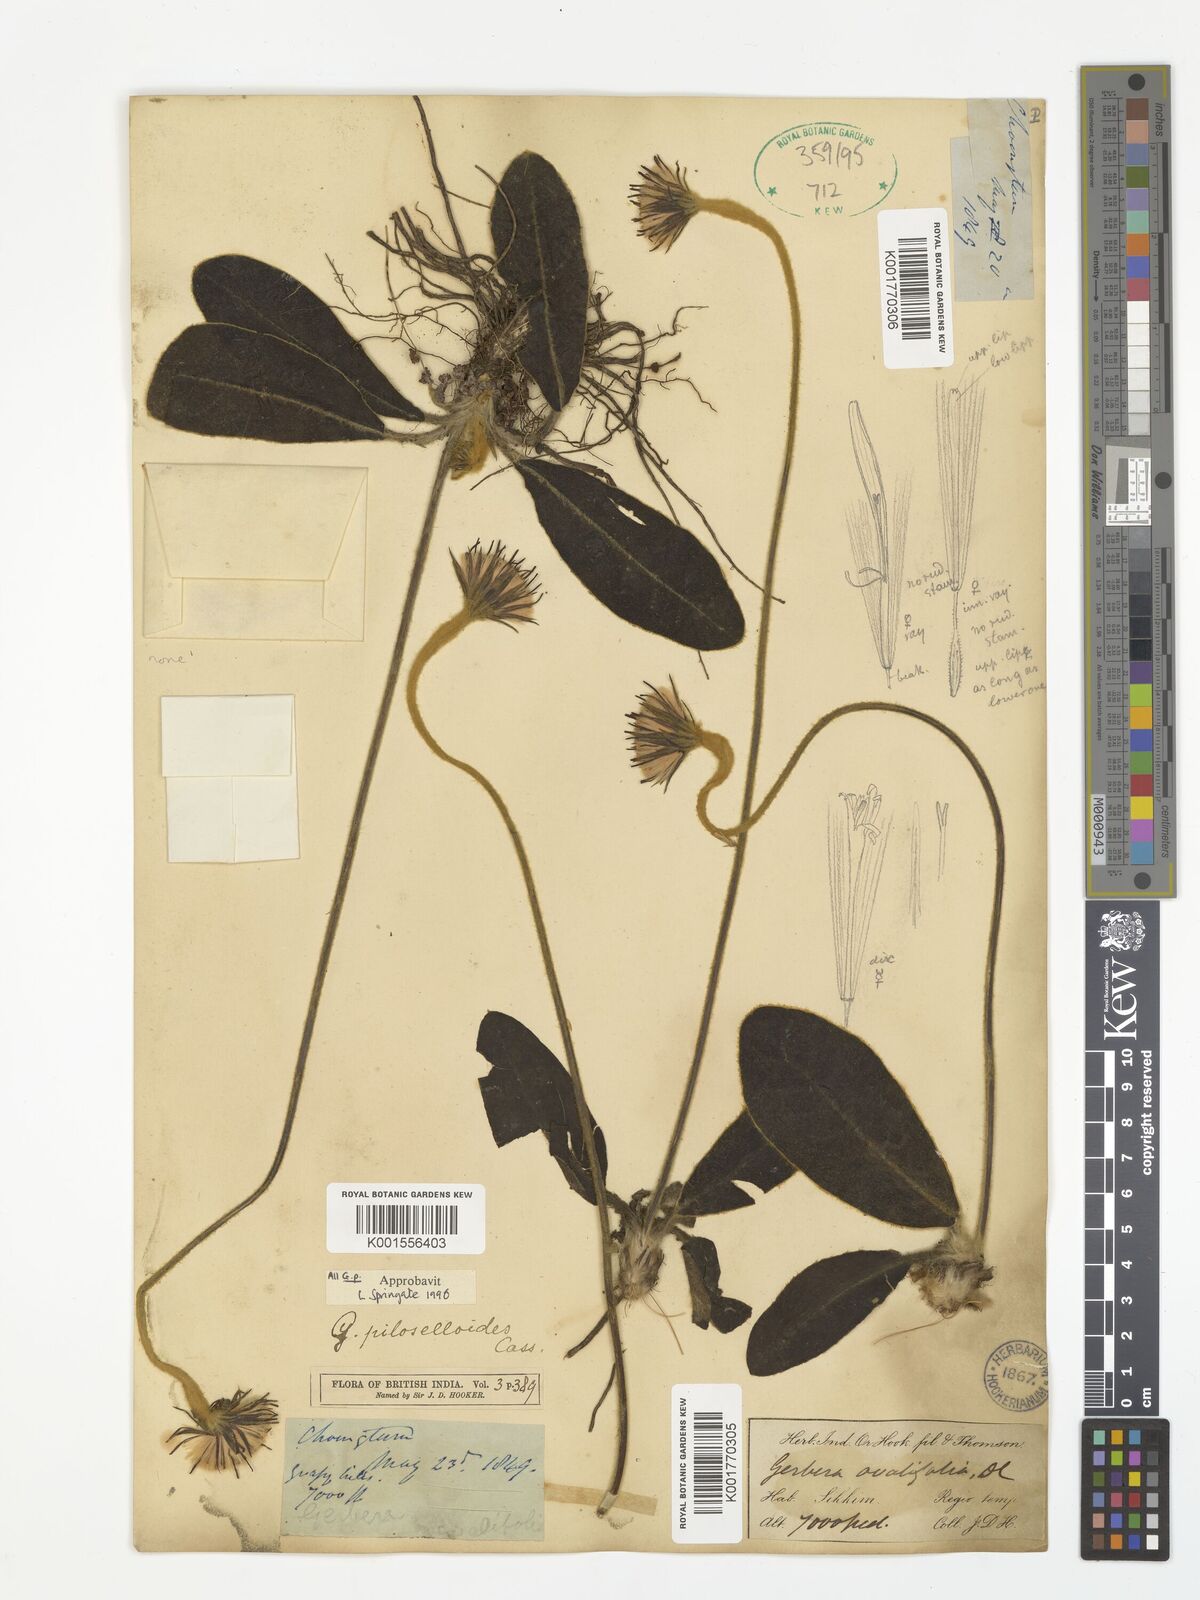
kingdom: Plantae
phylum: Tracheophyta
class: Magnoliopsida
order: Asterales
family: Asteraceae
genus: Piloselloides
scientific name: Piloselloides hirsuta
